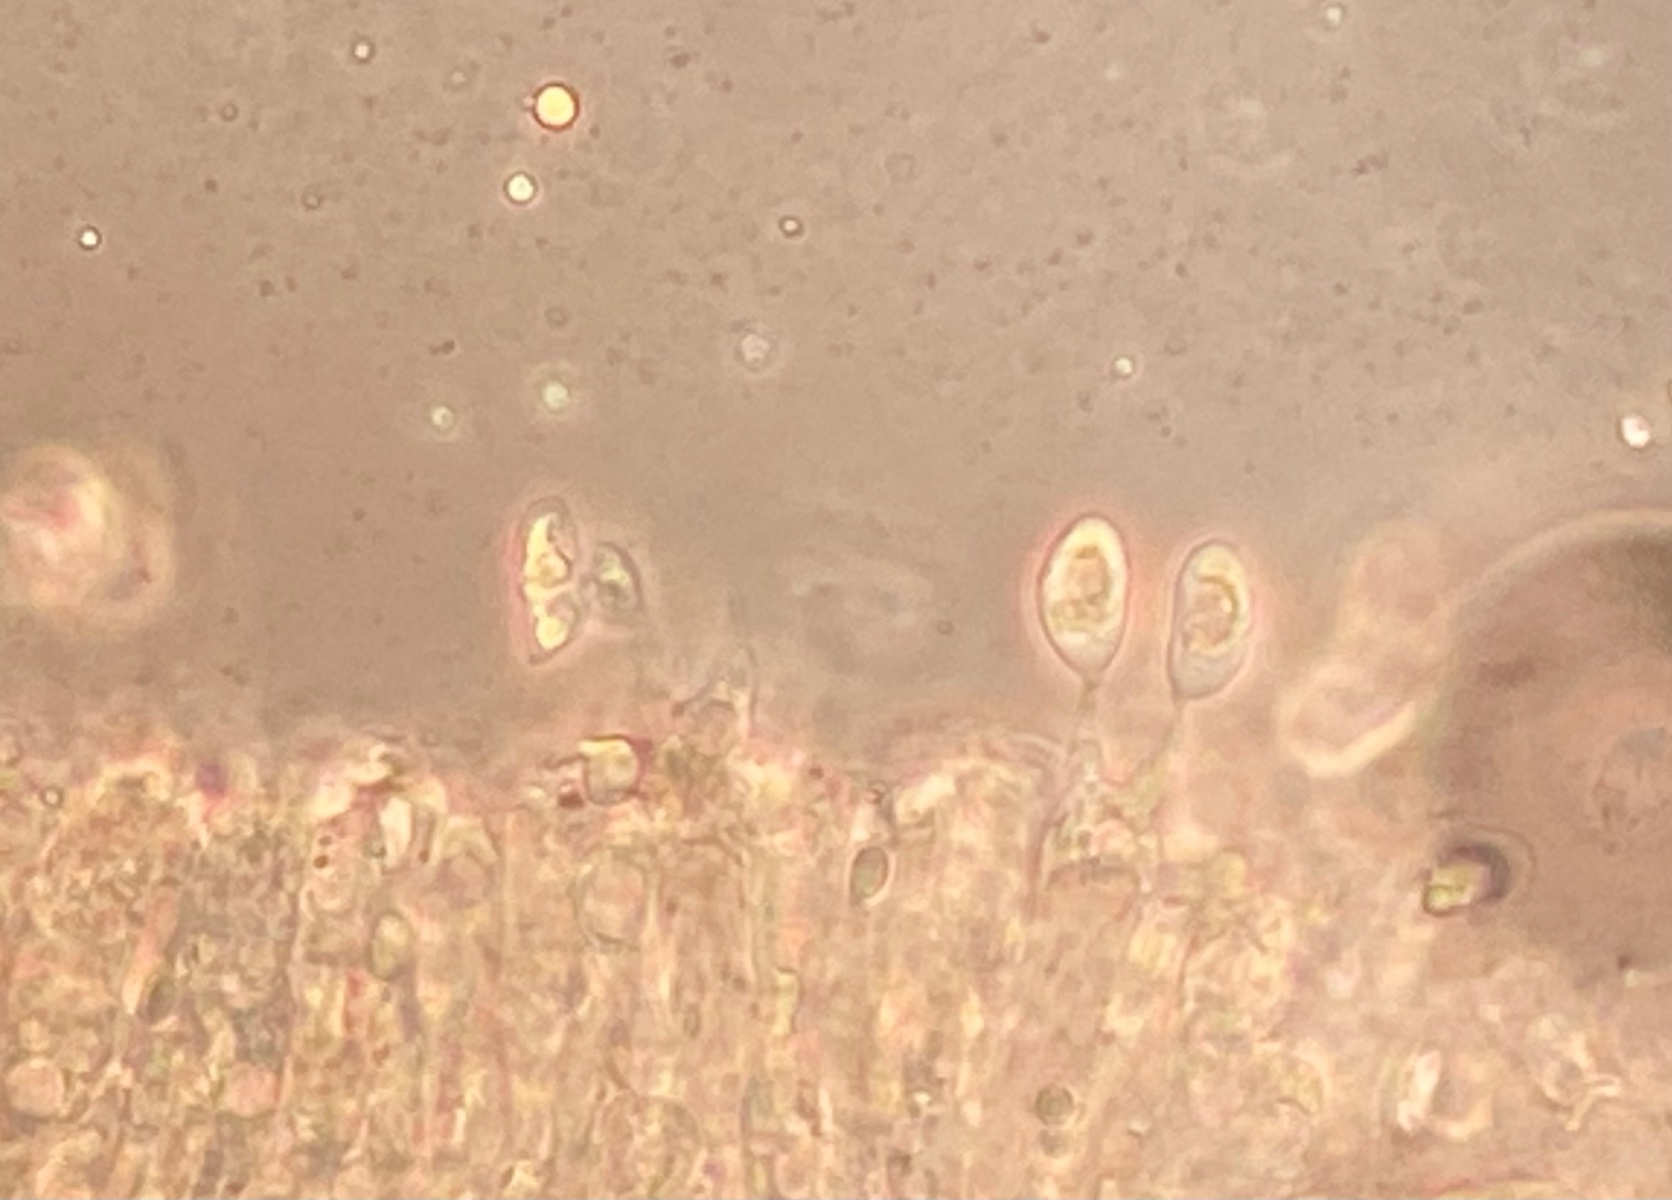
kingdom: Fungi
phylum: Basidiomycota
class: Agaricomycetes
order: Agaricales
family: Mycenaceae
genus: Mycena
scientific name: Mycena pseudopicta
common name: overdrevs-huesvamp
